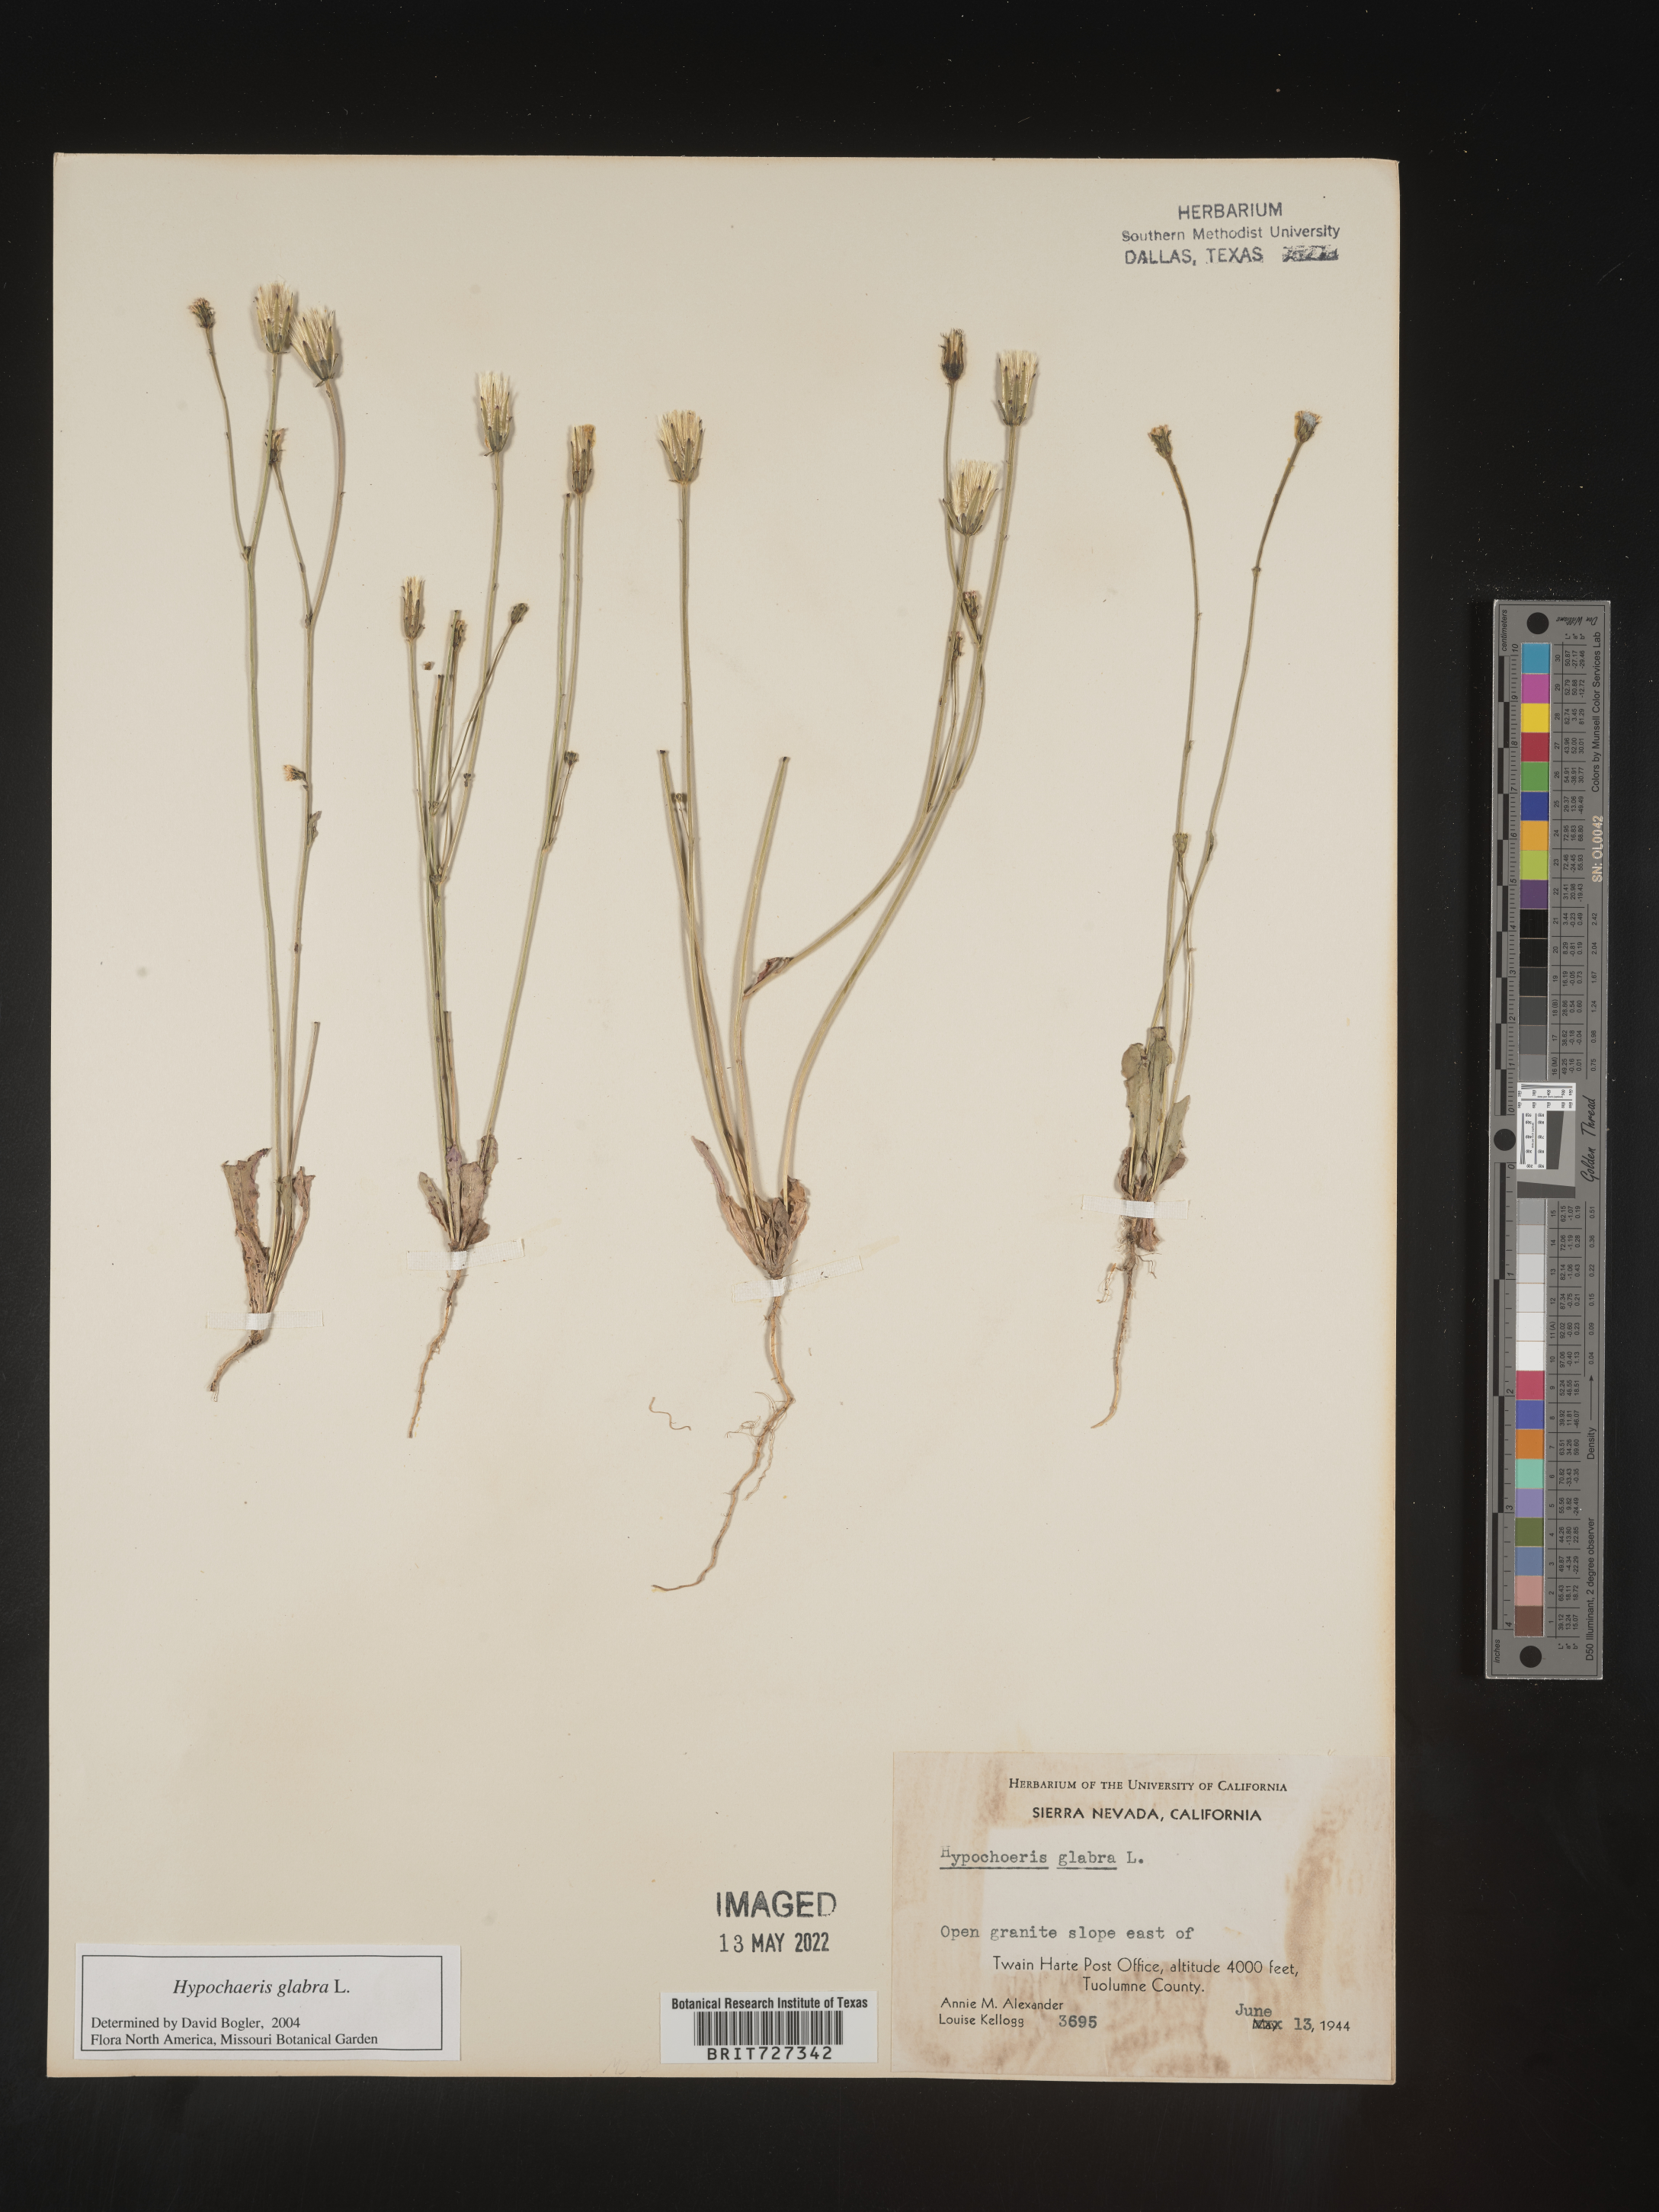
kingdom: Plantae
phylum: Tracheophyta
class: Magnoliopsida
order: Asterales
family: Asteraceae
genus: Hypochaeris
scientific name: Hypochaeris glabra
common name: Smooth catsear
